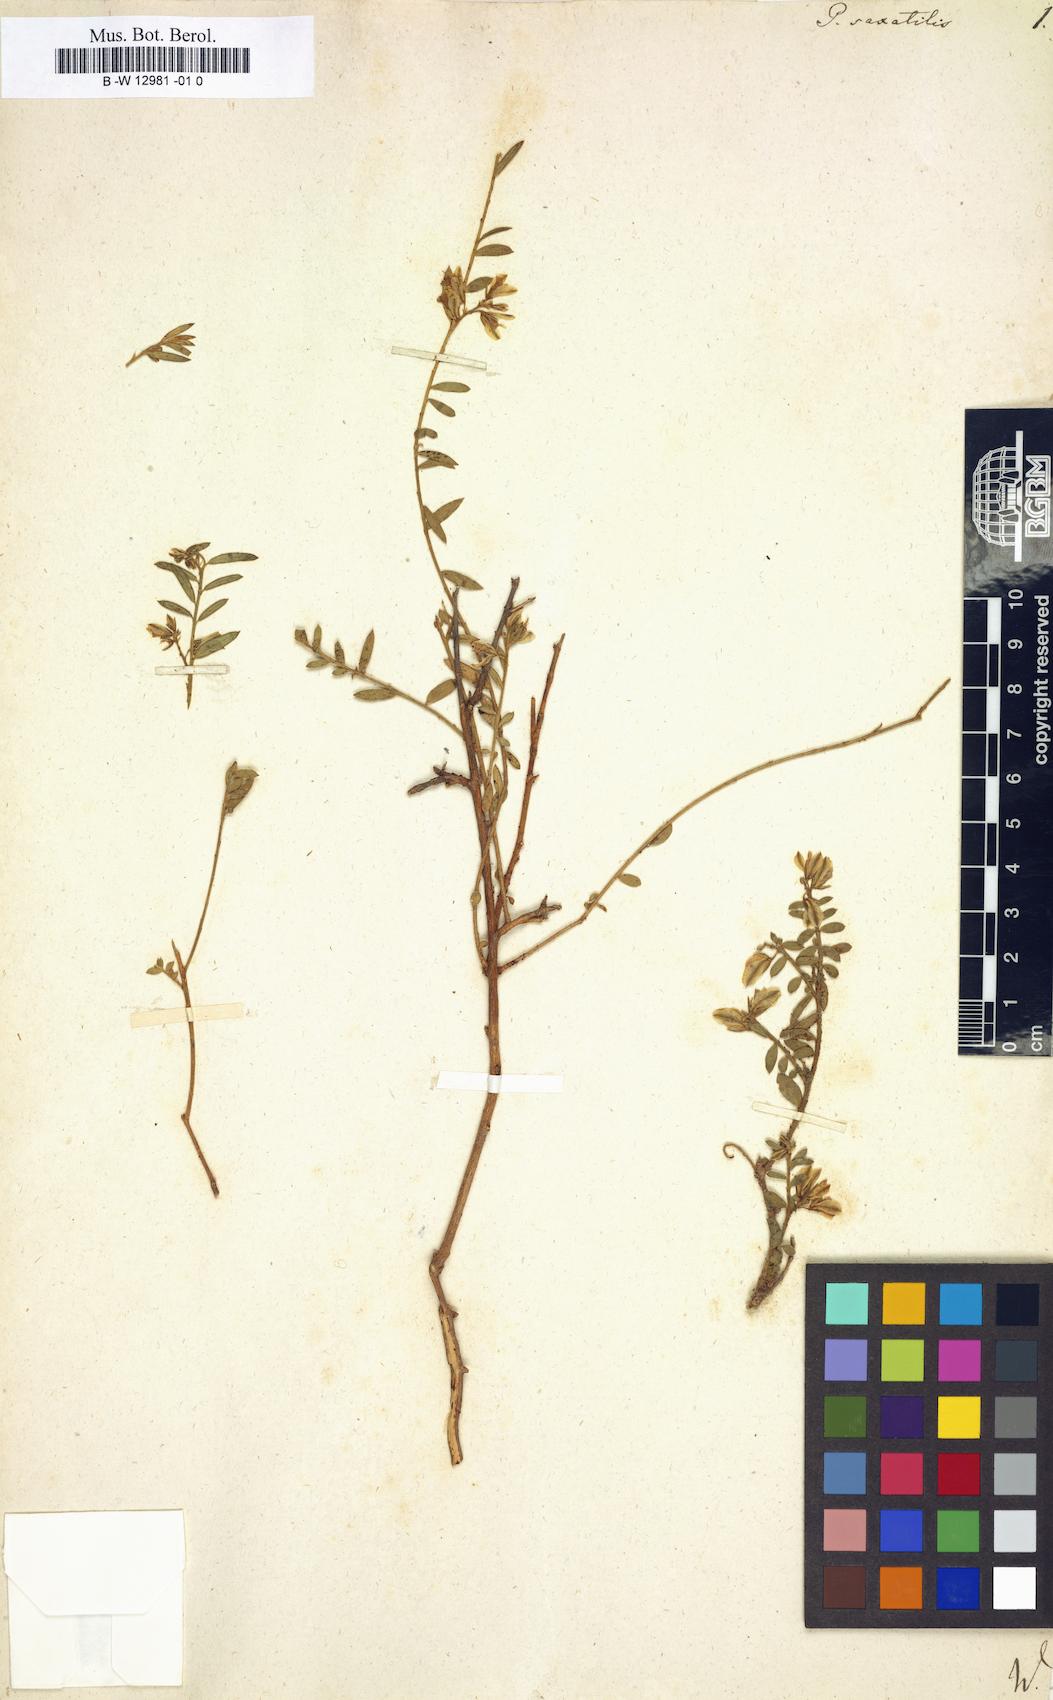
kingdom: Plantae
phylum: Tracheophyta
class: Magnoliopsida
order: Fabales
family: Polygalaceae
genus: Polygala
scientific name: Polygala
